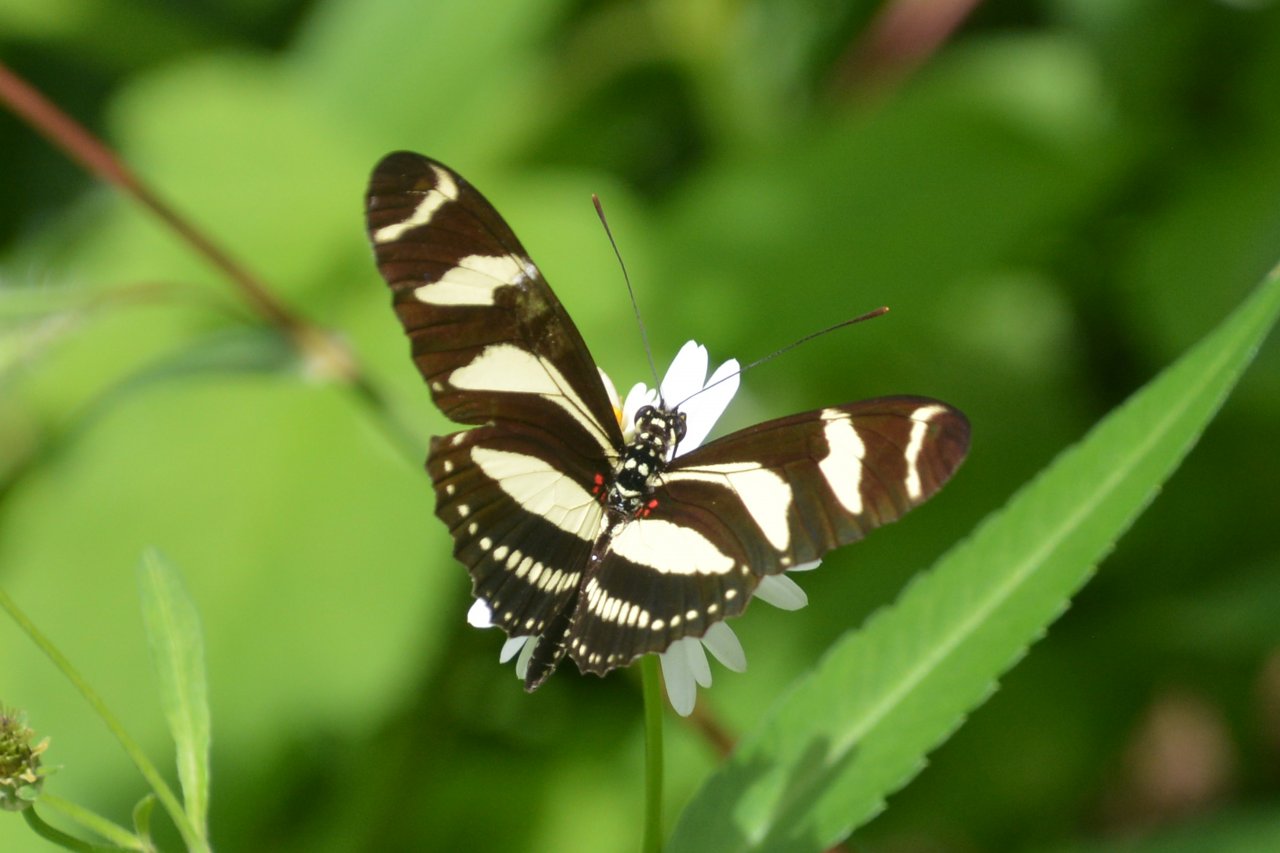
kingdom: Animalia
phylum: Arthropoda
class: Insecta
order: Lepidoptera
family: Nymphalidae
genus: Heliconius
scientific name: Heliconius charithonia
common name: Zebra Longwing
